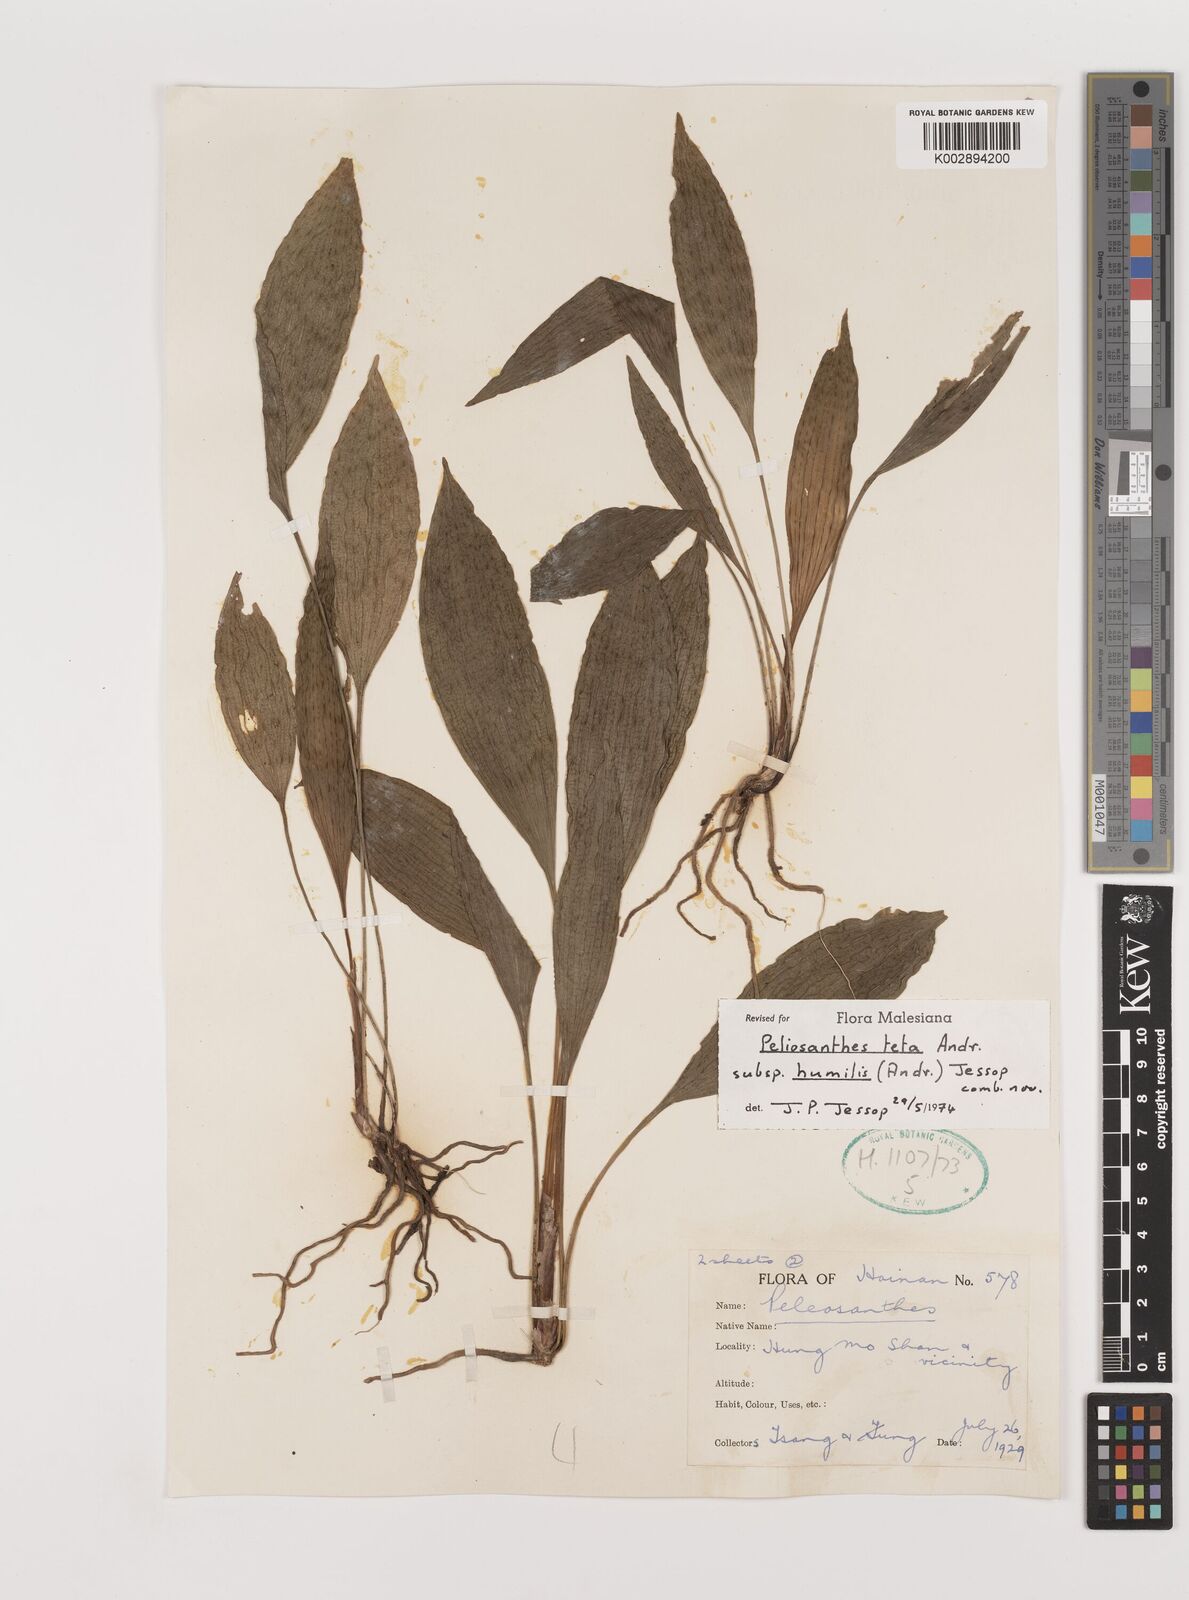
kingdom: Plantae
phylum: Tracheophyta
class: Liliopsida
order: Asparagales
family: Asparagaceae
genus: Peliosanthes
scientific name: Peliosanthes teta
